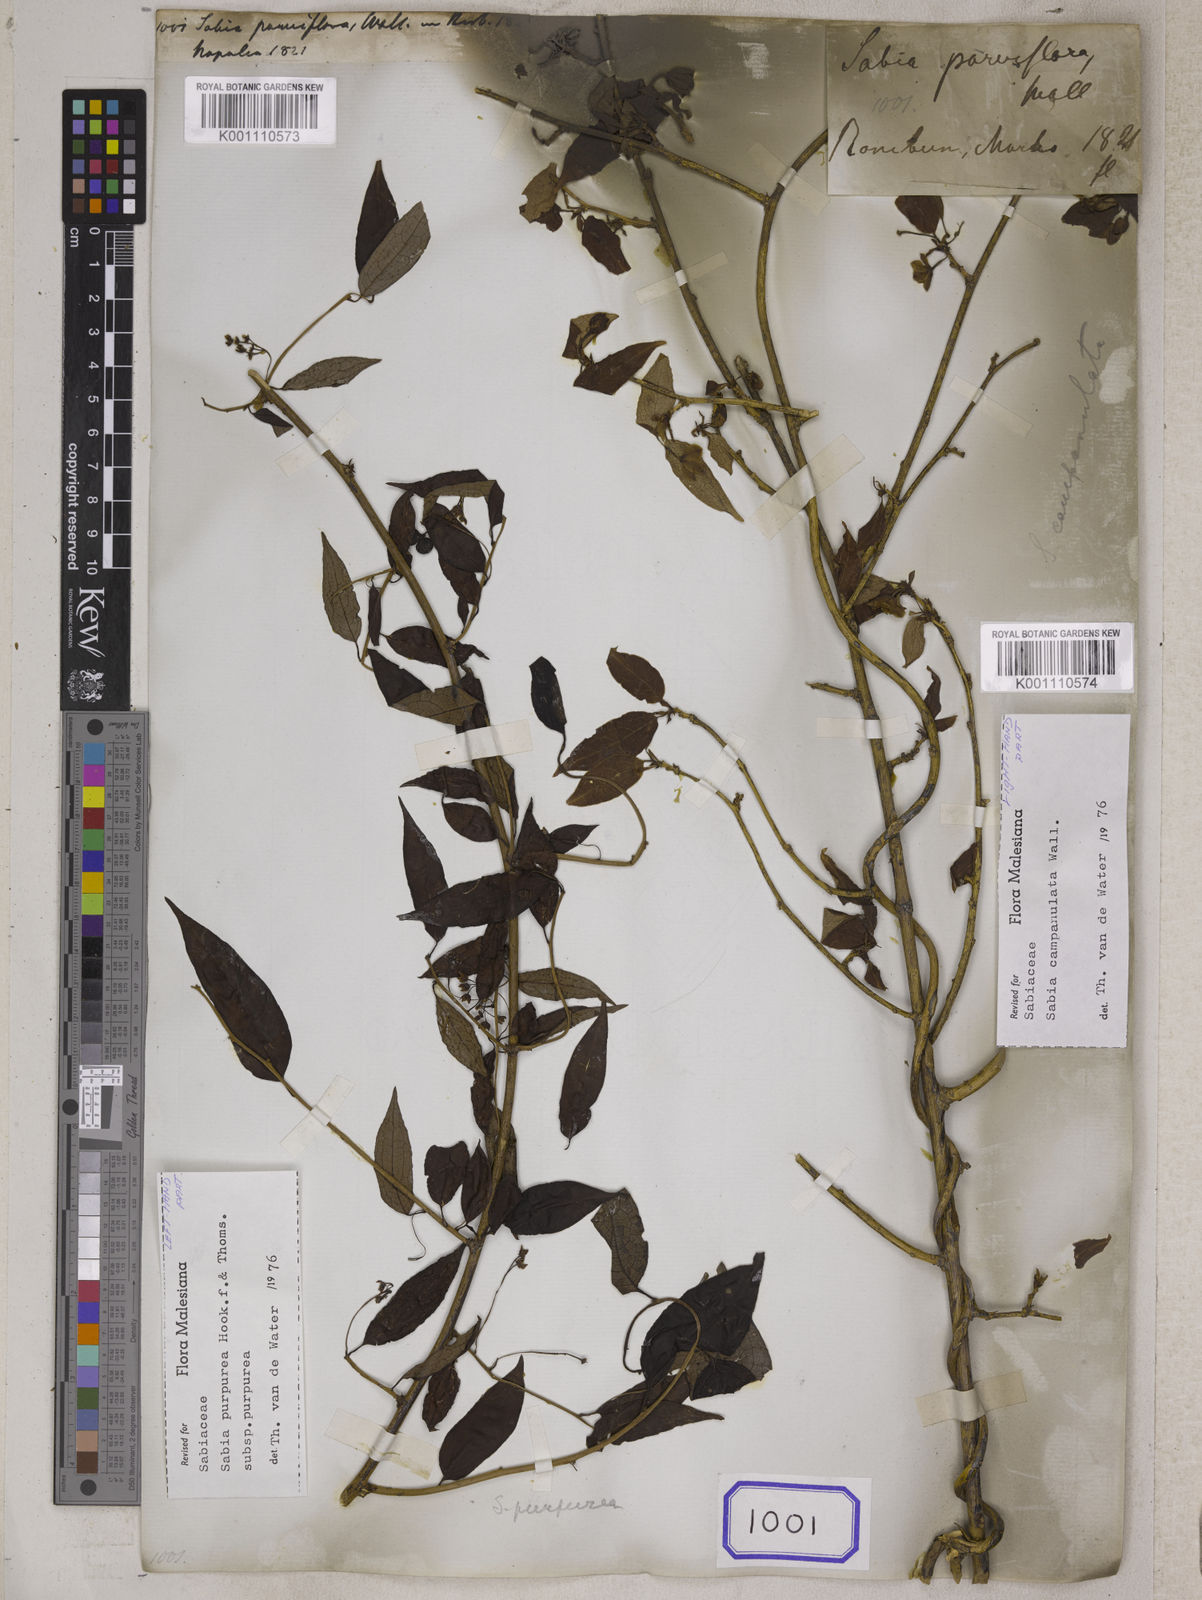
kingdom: Plantae
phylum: Tracheophyta
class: Magnoliopsida
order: Proteales
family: Sabiaceae
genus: Sabia
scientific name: Sabia parviflora
